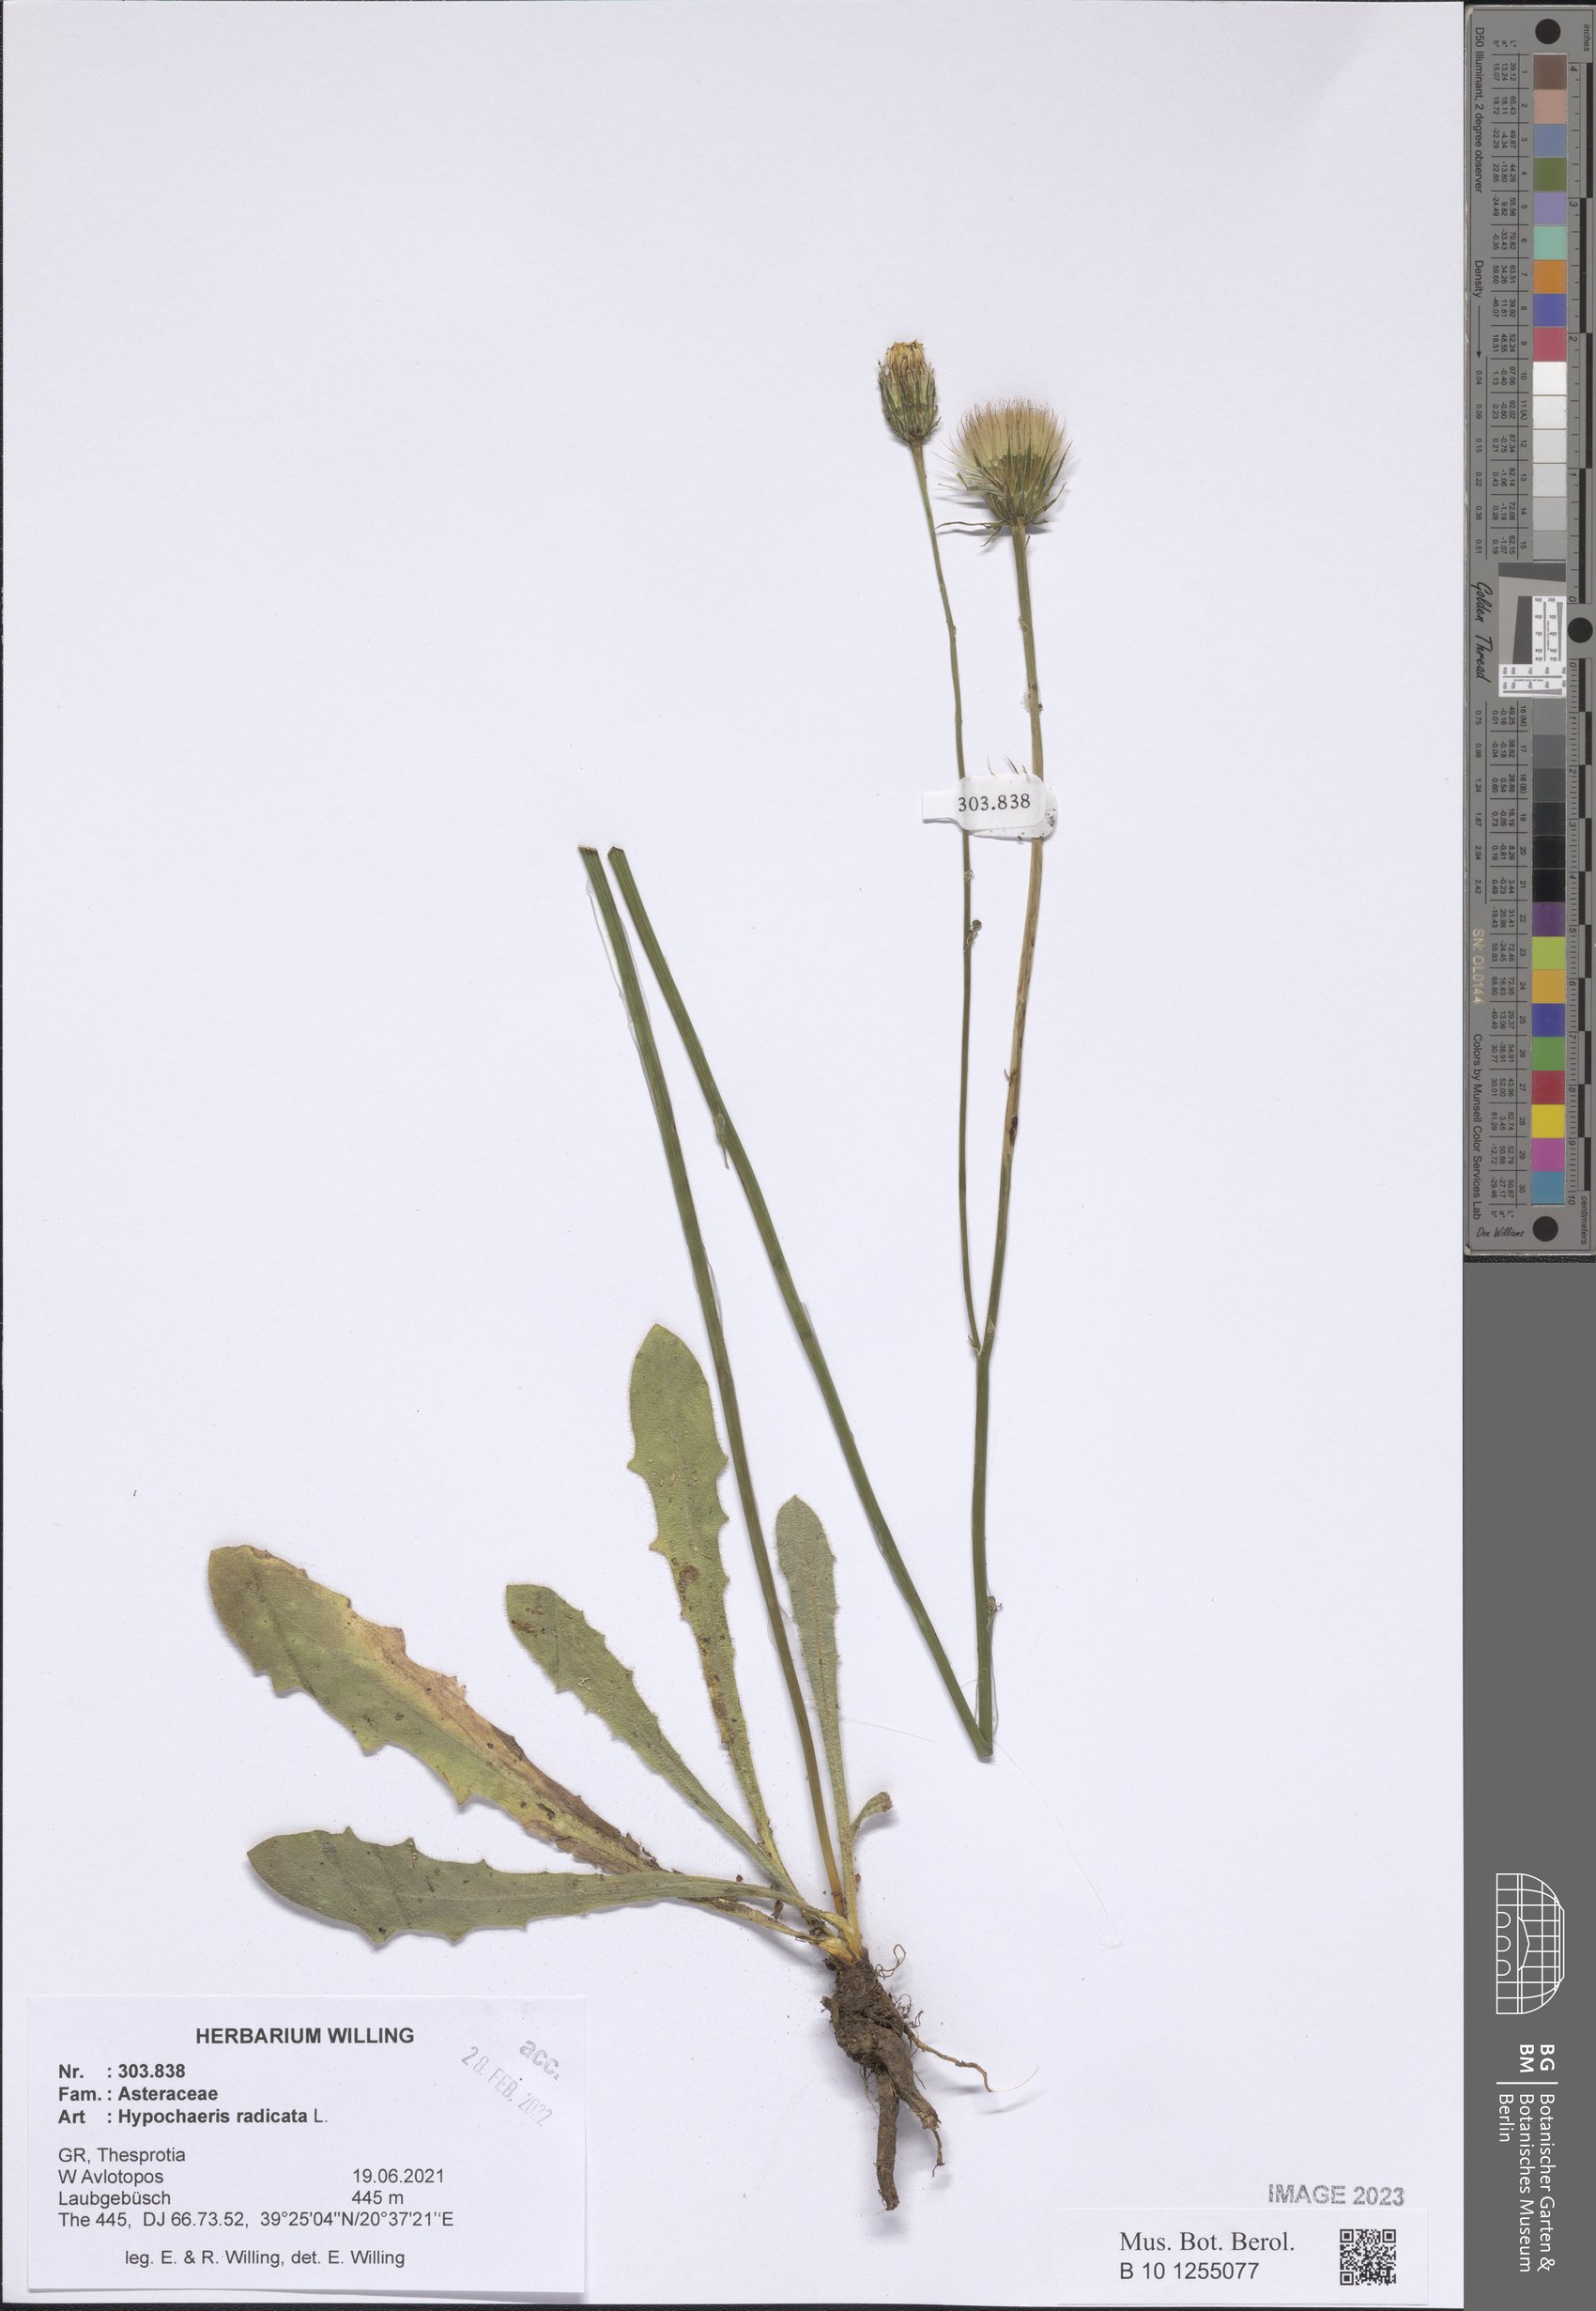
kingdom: Plantae
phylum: Tracheophyta
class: Magnoliopsida
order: Asterales
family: Asteraceae
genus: Hypochaeris
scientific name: Hypochaeris radicata
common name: Flatweed
